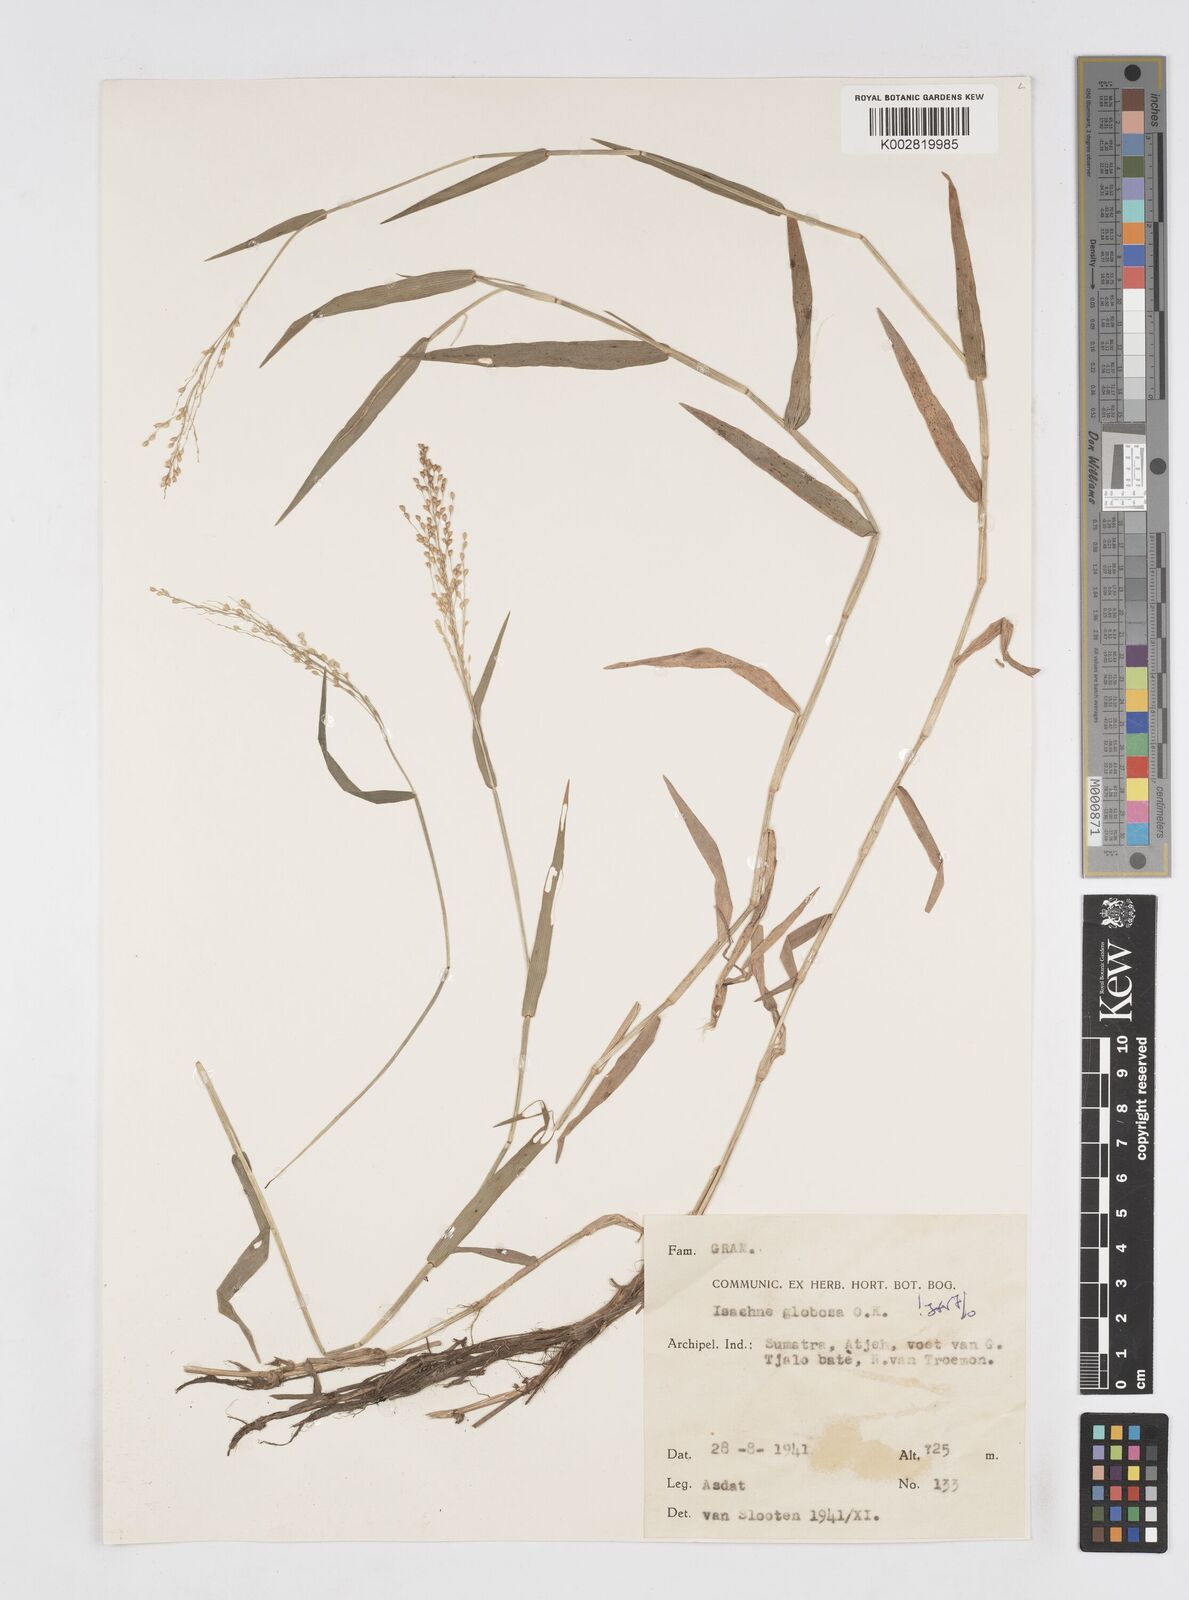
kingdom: Plantae
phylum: Tracheophyta
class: Liliopsida
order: Poales
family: Poaceae
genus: Isachne
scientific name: Isachne globosa
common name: Swamp millet
